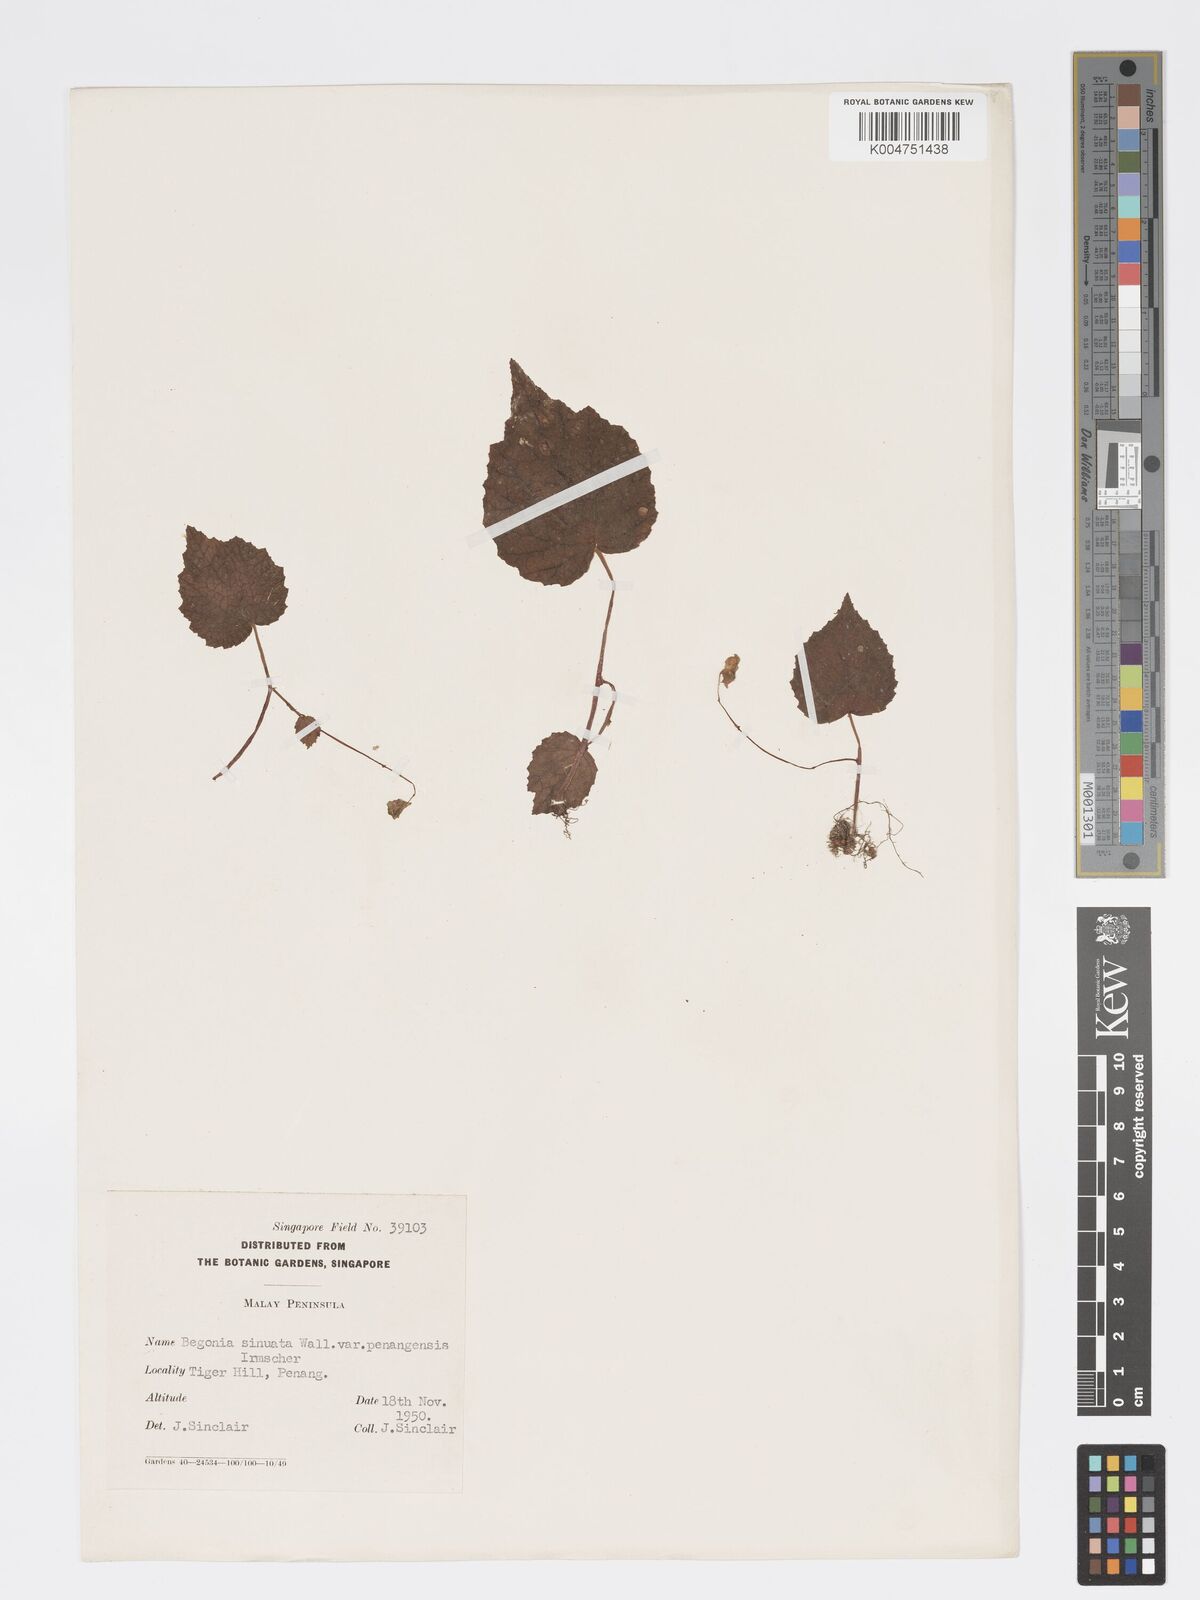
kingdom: Plantae
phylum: Tracheophyta
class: Magnoliopsida
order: Cucurbitales
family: Begoniaceae
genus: Begonia
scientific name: Begonia
